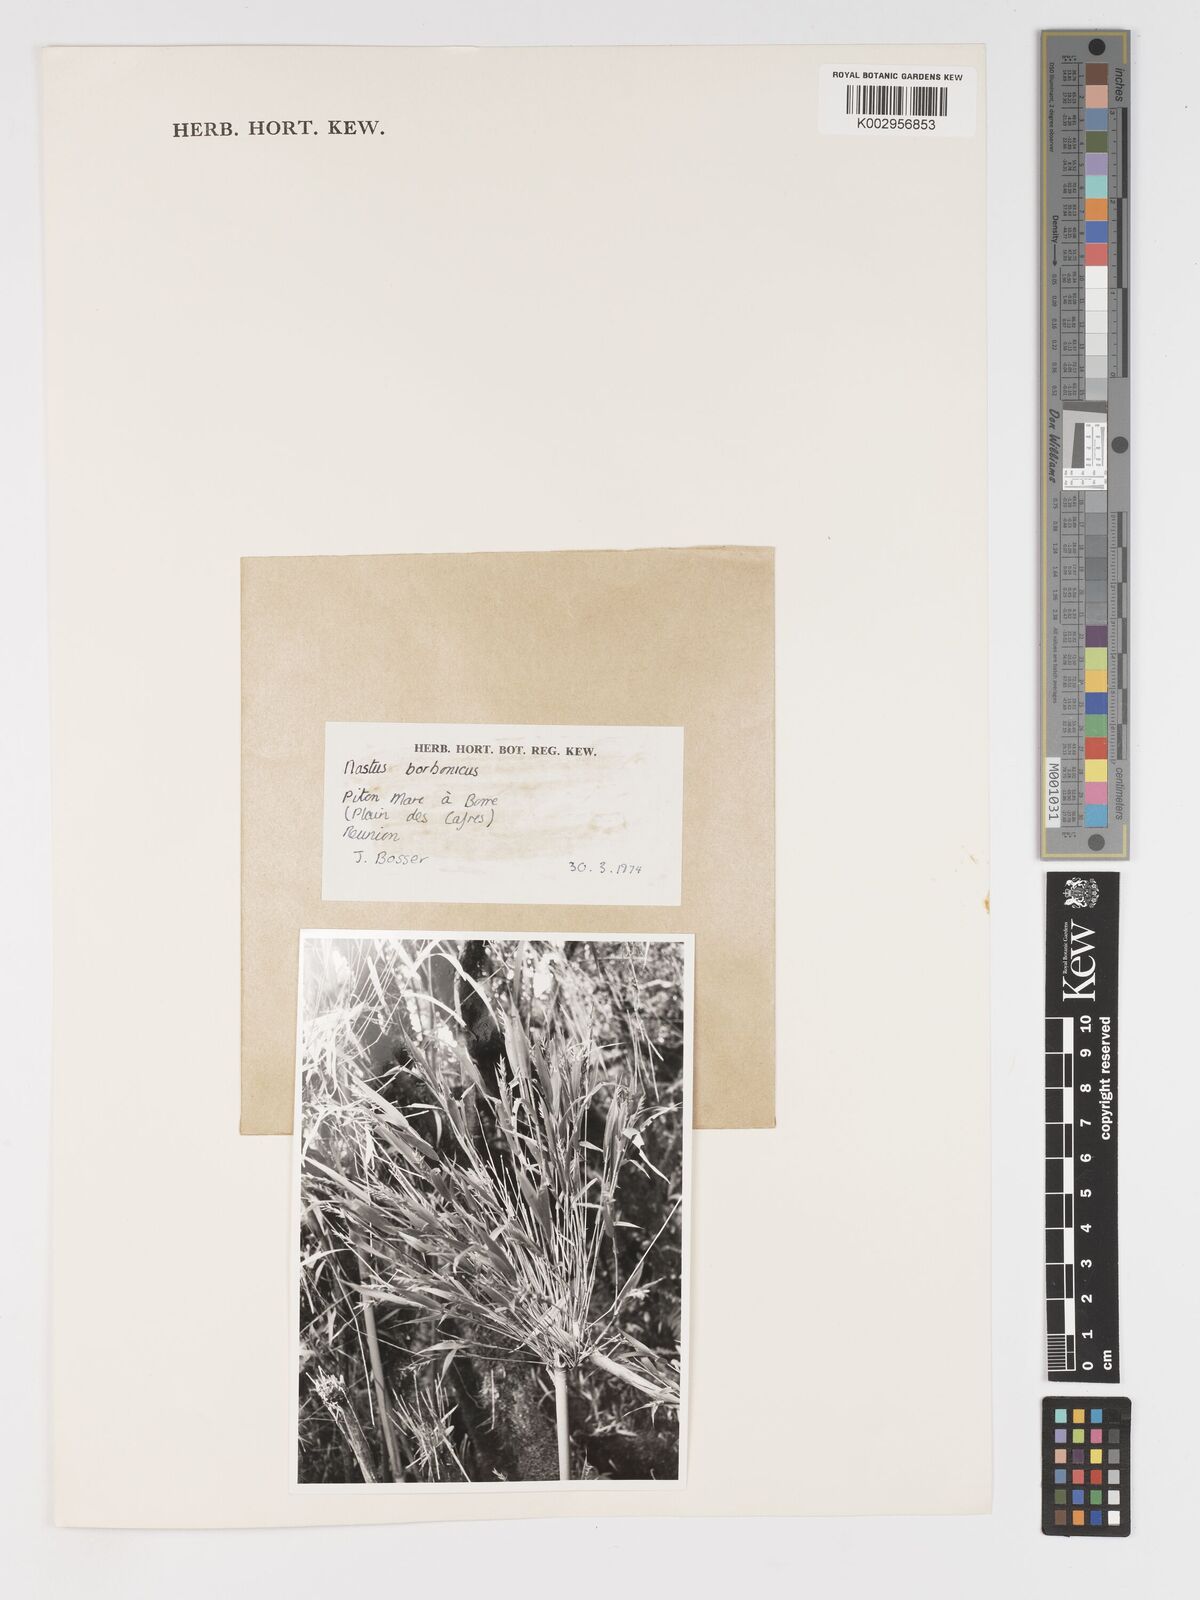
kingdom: Plantae
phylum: Tracheophyta
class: Liliopsida
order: Poales
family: Poaceae
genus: Nastus
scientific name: Nastus
